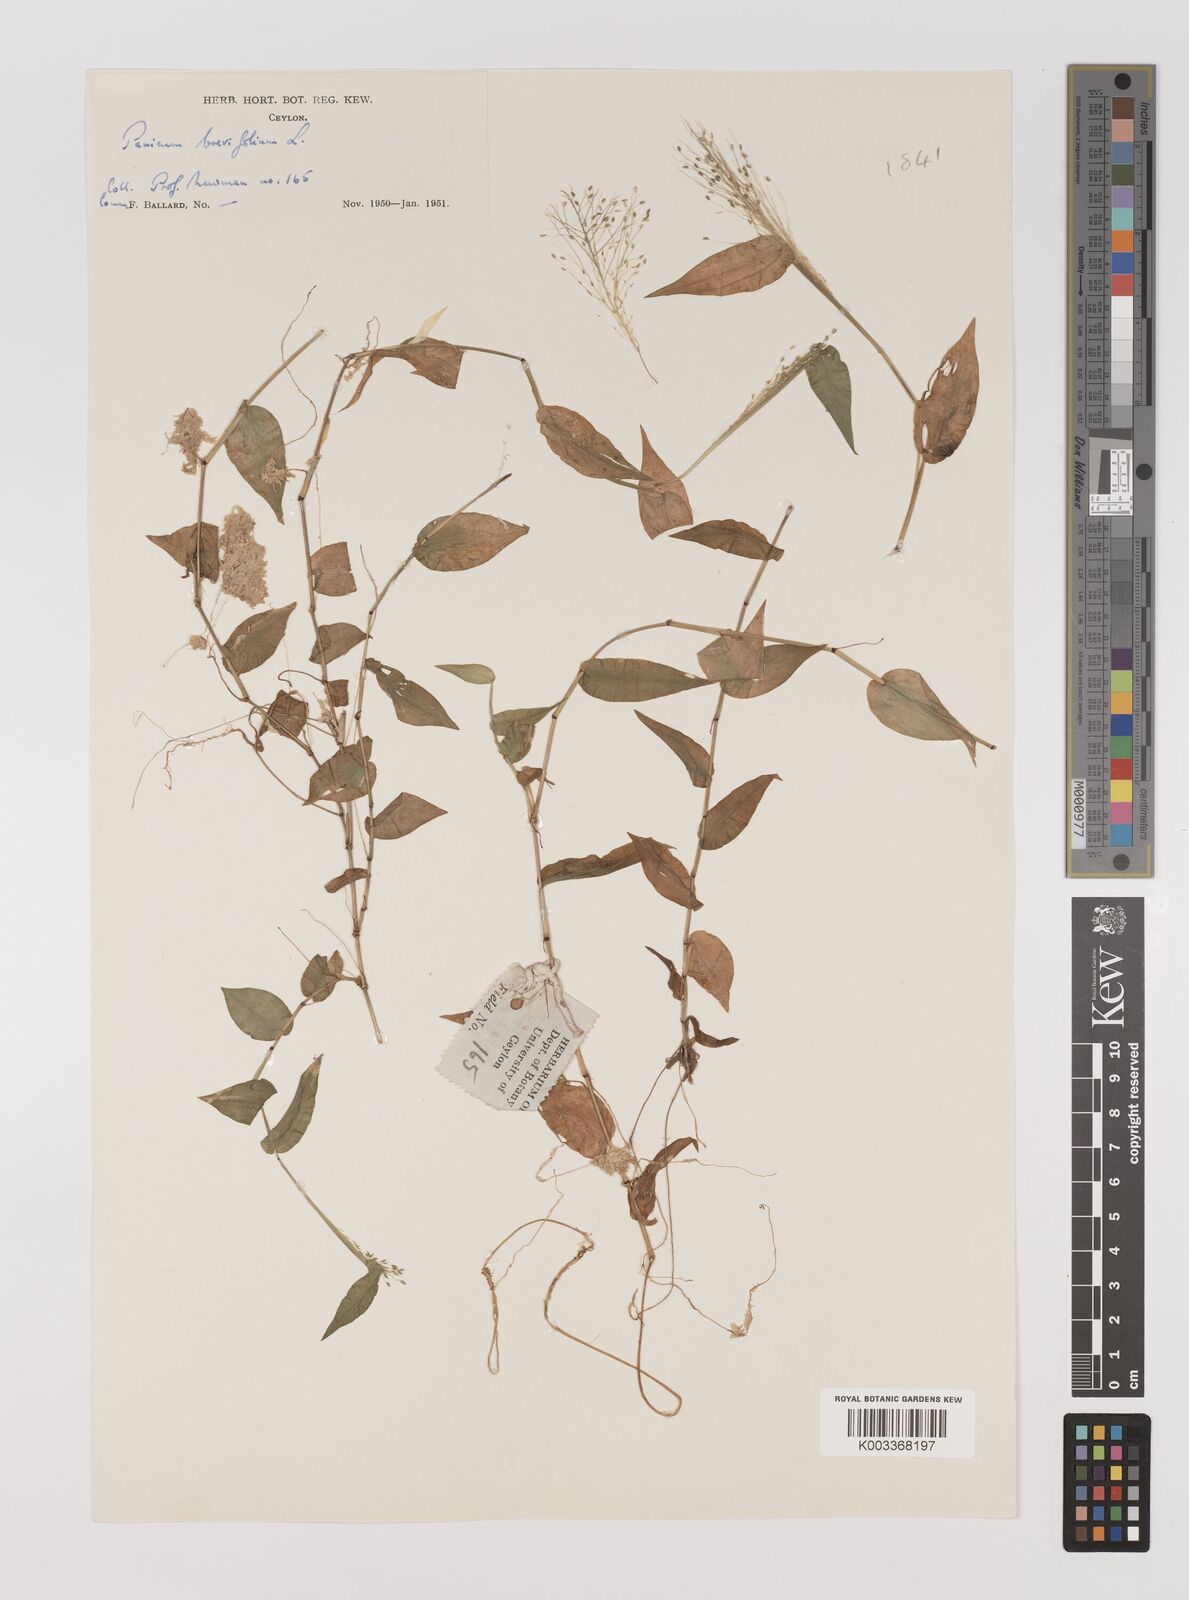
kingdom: Plantae
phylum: Tracheophyta
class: Liliopsida
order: Poales
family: Poaceae
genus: Panicum
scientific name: Panicum brevifolium
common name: Shortleaf panic grass
